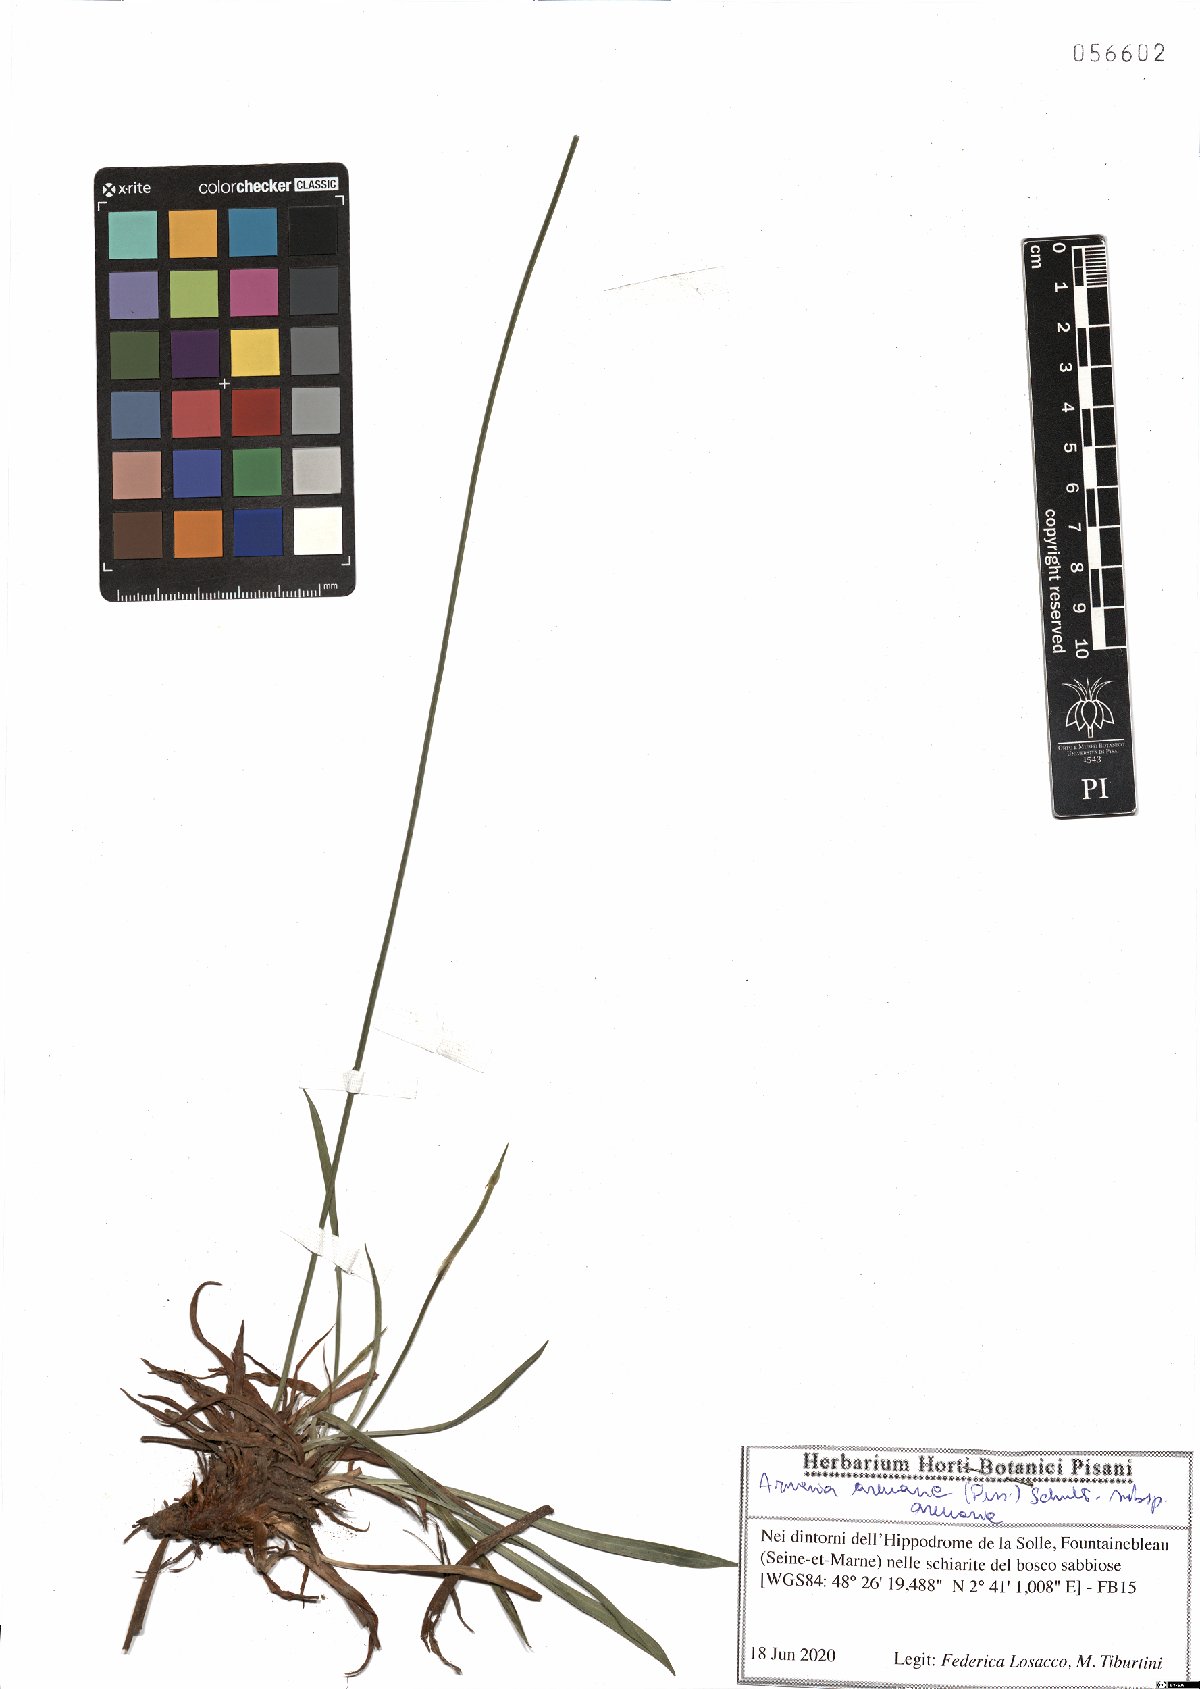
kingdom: Plantae
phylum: Tracheophyta
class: Magnoliopsida
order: Caryophyllales
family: Plumbaginaceae
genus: Armeria
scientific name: Armeria arenaria
